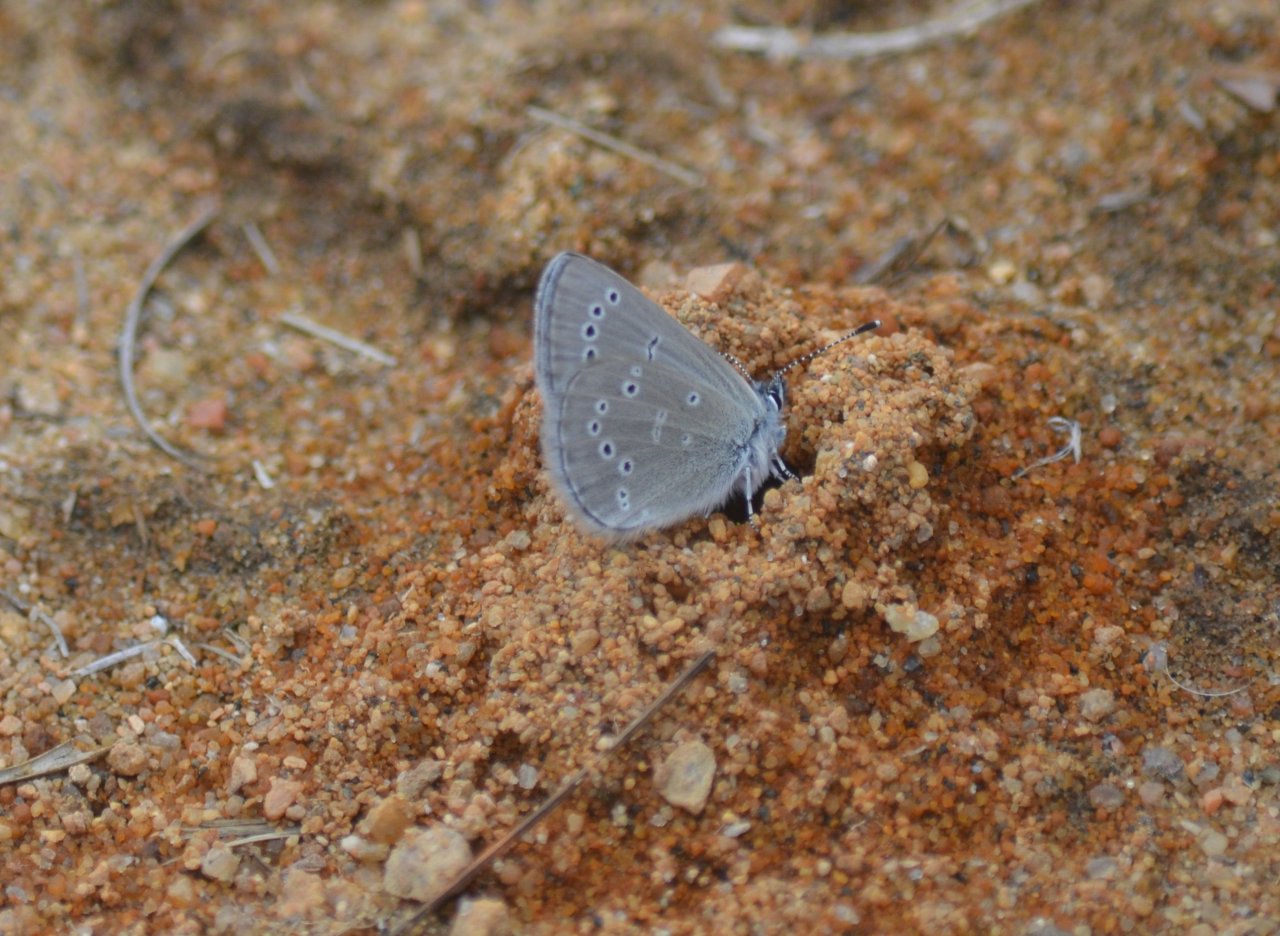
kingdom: Animalia
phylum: Arthropoda
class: Insecta
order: Lepidoptera
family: Lycaenidae
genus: Glaucopsyche
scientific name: Glaucopsyche lygdamus
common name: Silvery Blue
